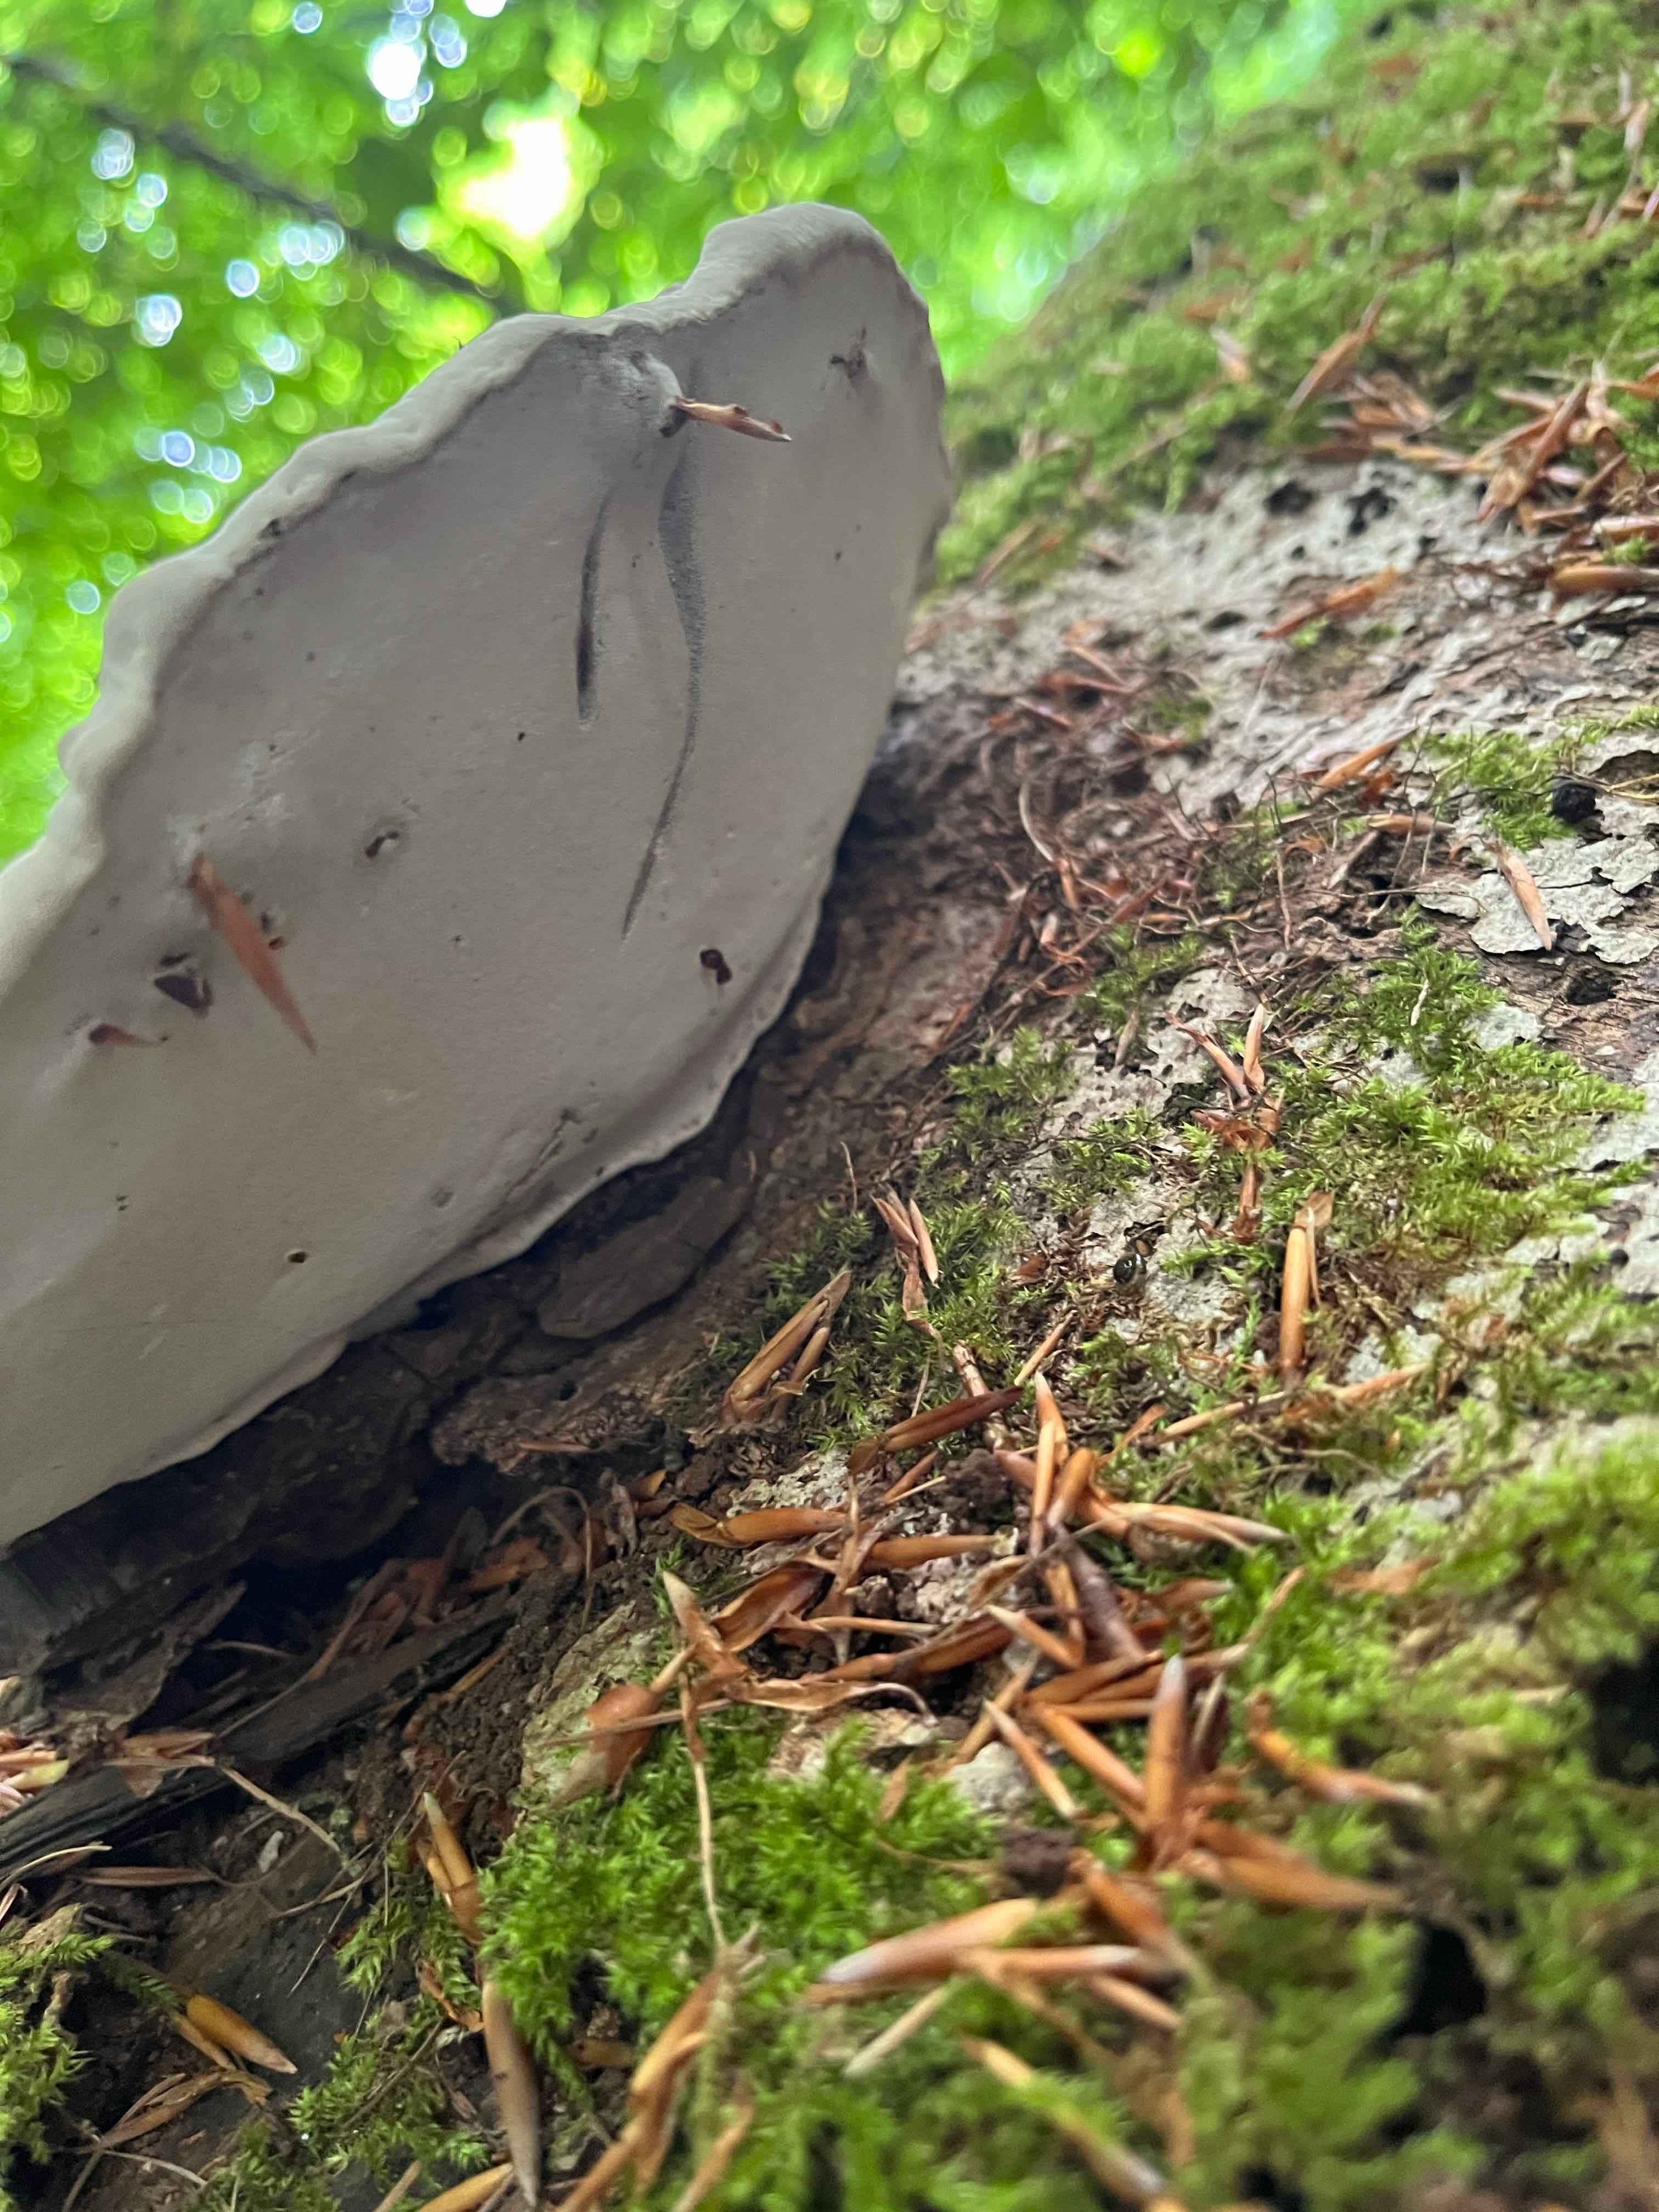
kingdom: Fungi
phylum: Basidiomycota
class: Agaricomycetes
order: Polyporales
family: Polyporaceae
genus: Ganoderma
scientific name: Ganoderma applanatum
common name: flad lakporesvamp
